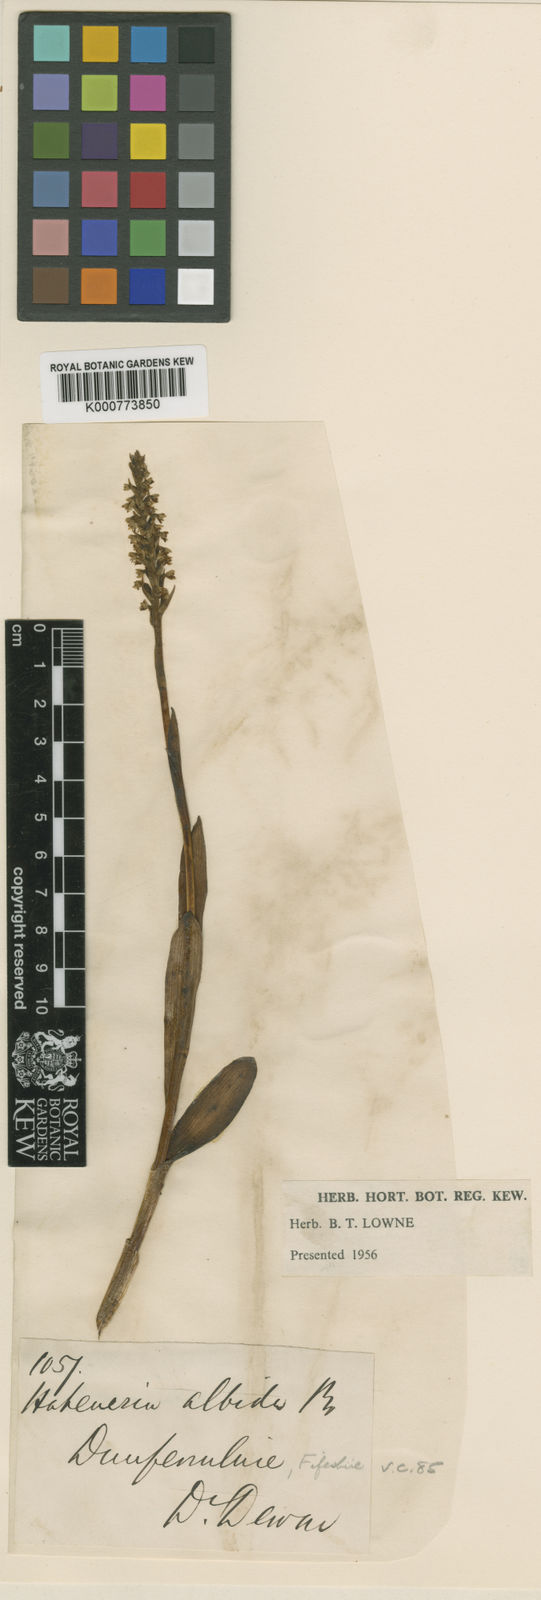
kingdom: Plantae
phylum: Tracheophyta
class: Liliopsida
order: Asparagales
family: Orchidaceae
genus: Pseudorchis
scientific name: Pseudorchis
